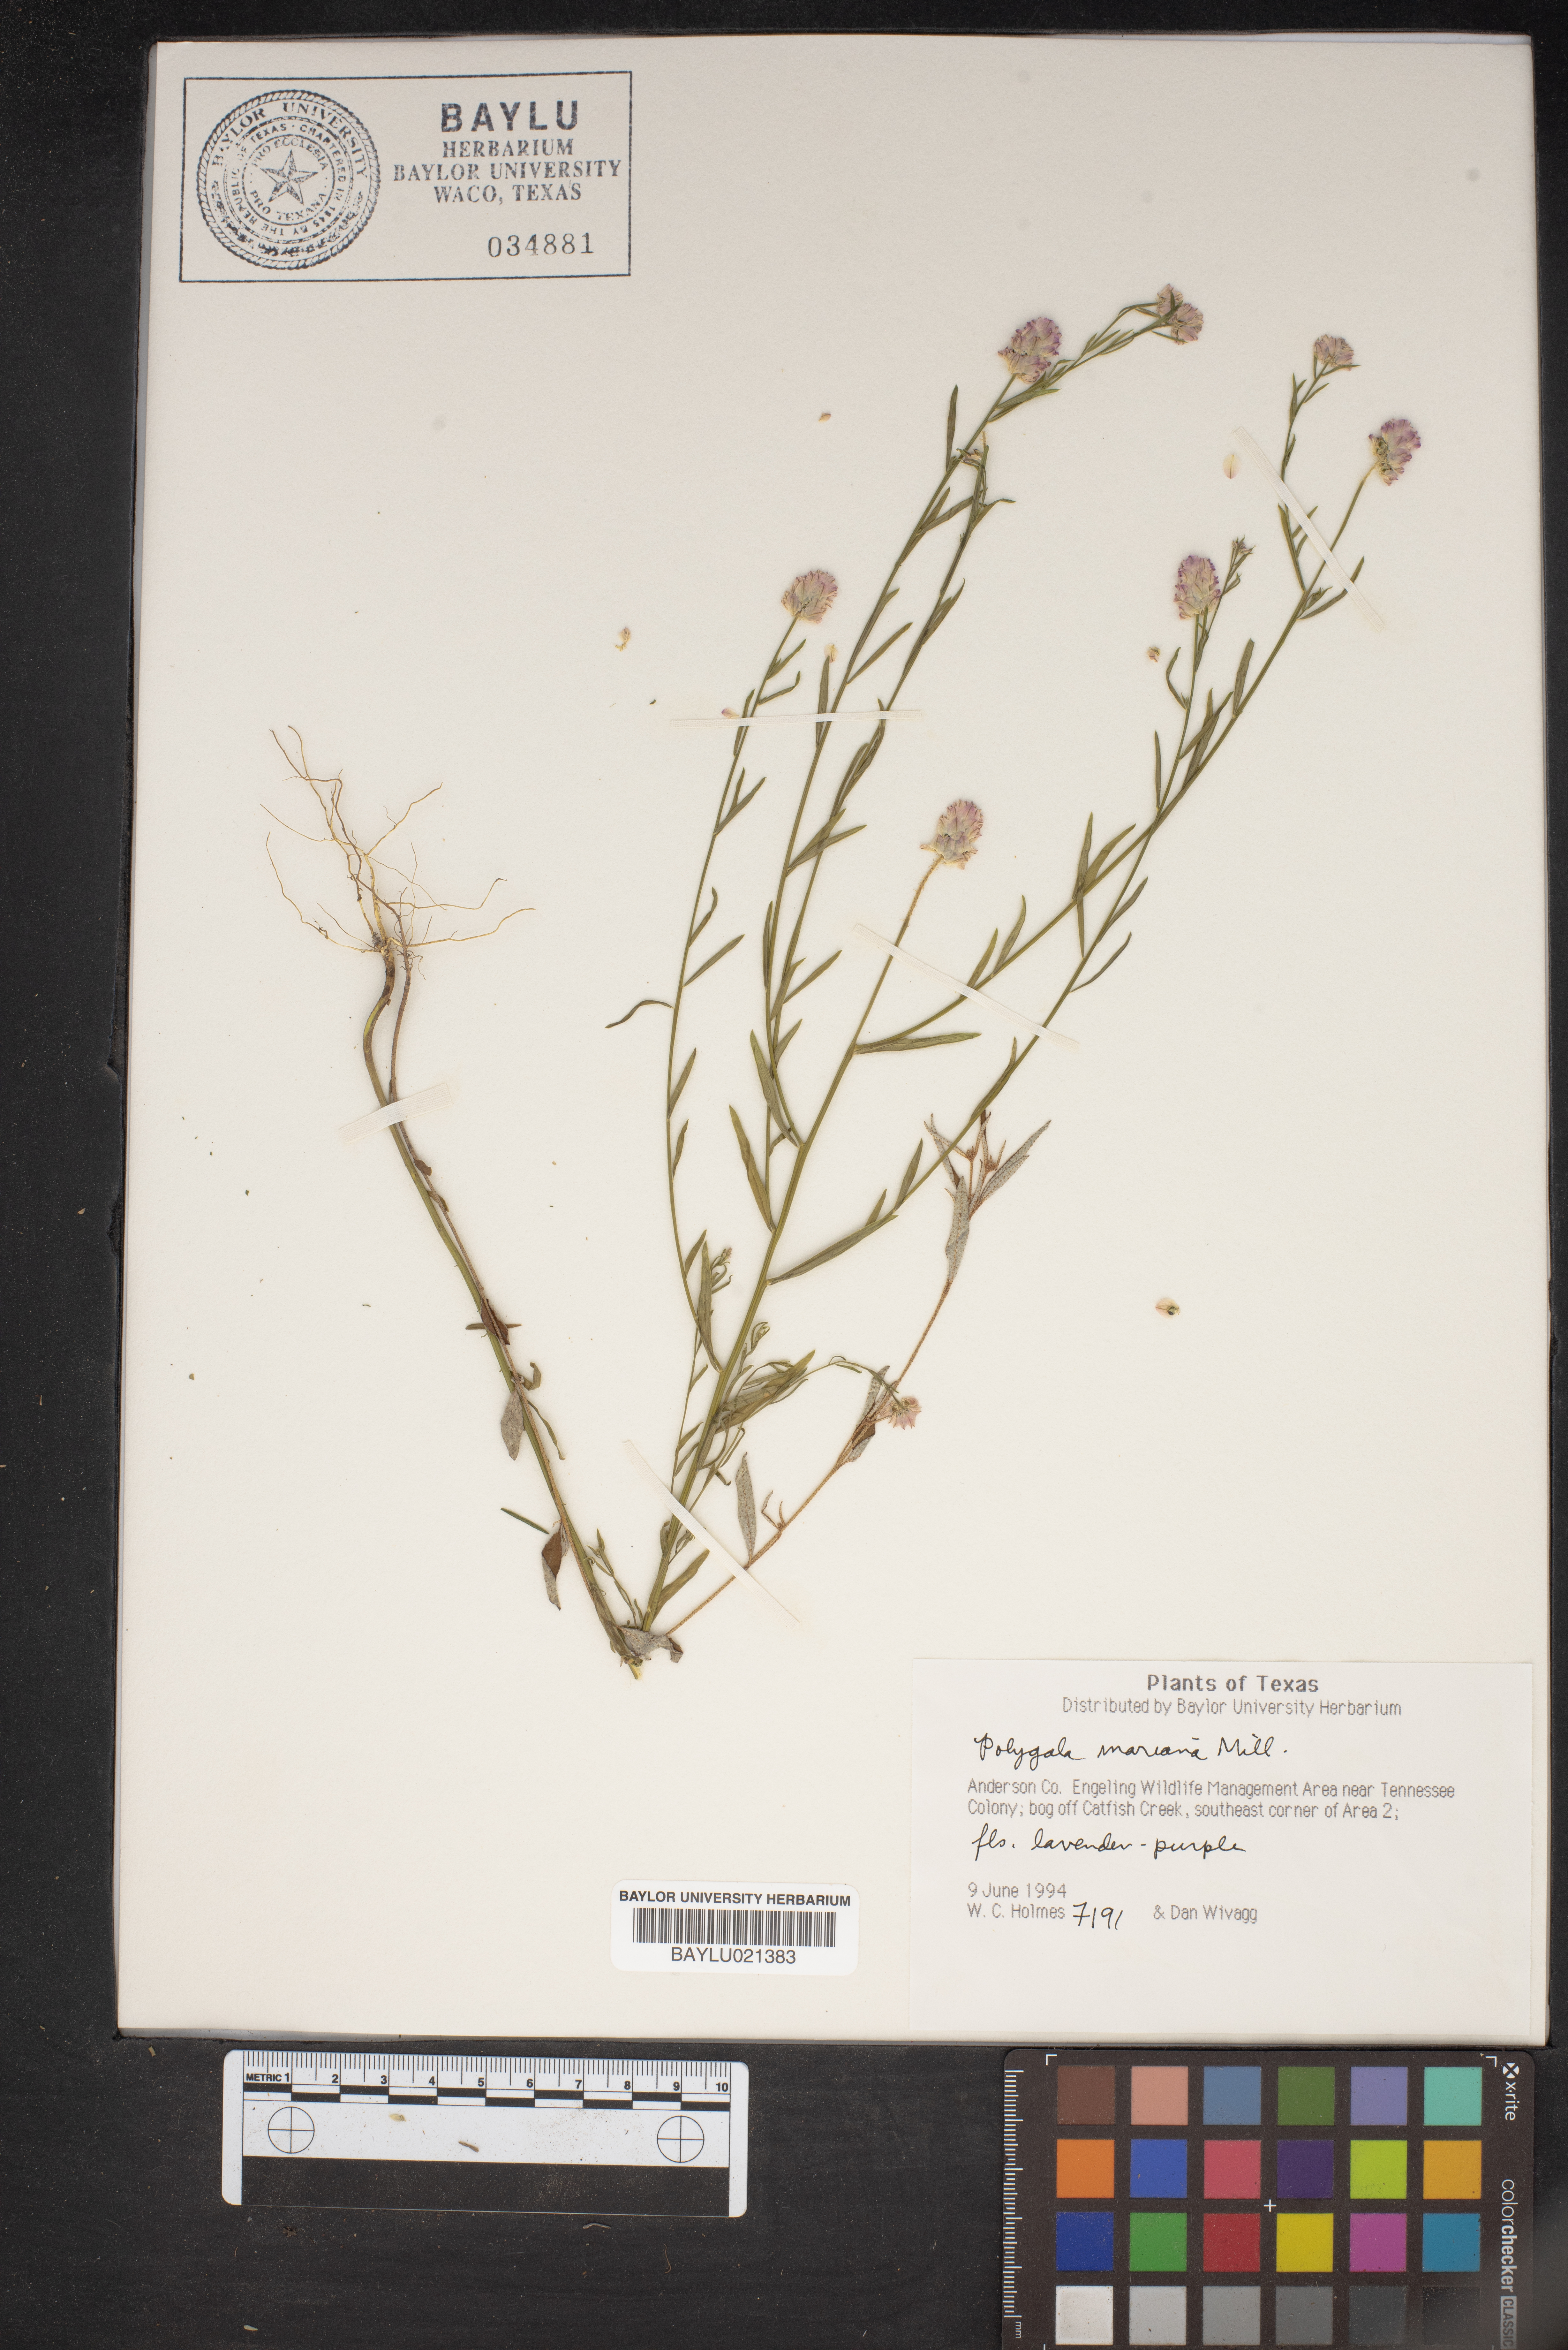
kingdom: Plantae
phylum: Tracheophyta
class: Magnoliopsida
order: Fabales
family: Polygalaceae
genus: Polygala
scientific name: Polygala mariana
